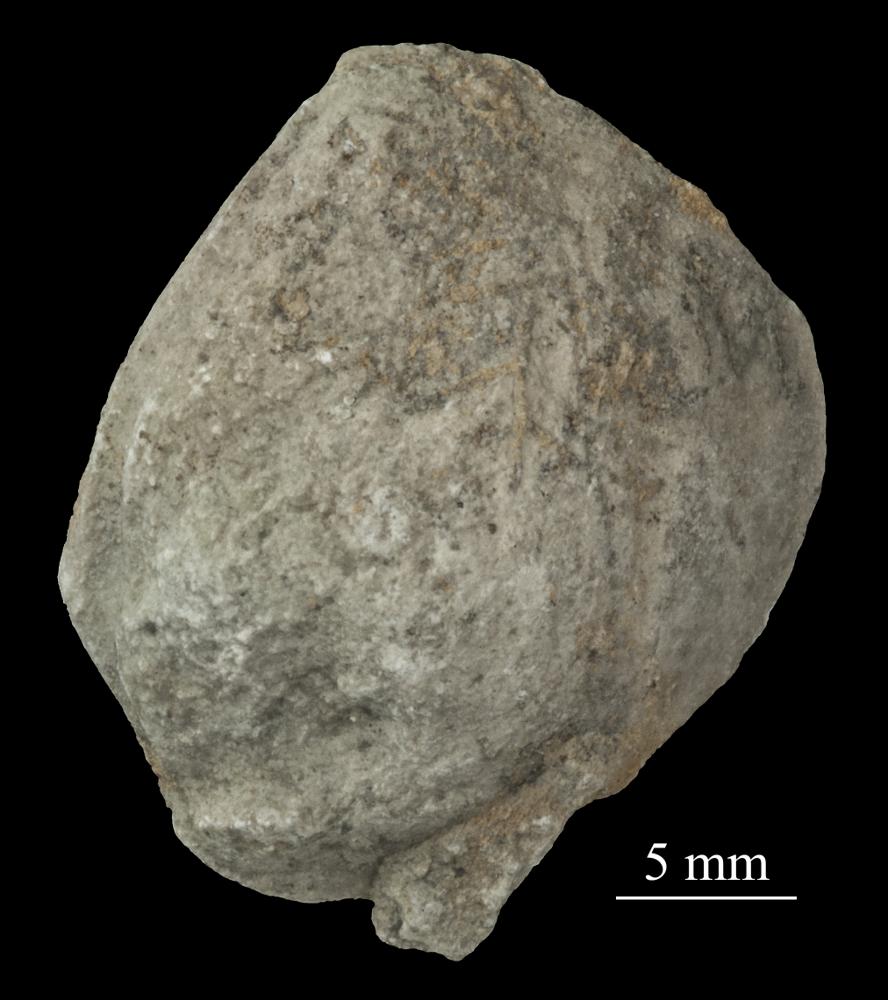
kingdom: Animalia
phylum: Mollusca
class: Bivalvia
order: Cyrtodontida
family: Cyrtodontidae
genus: Cyrtodonta
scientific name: Cyrtodonta
